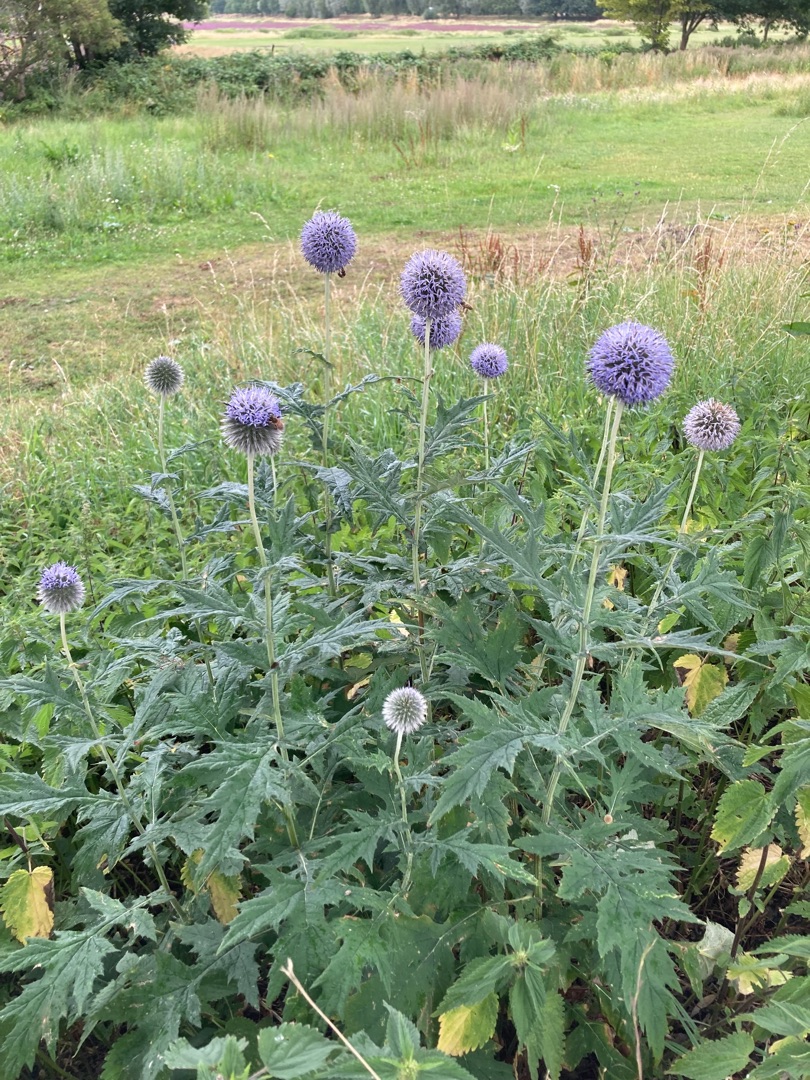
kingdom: Plantae
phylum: Tracheophyta
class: Magnoliopsida
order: Asterales
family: Asteraceae
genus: Echinops
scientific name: Echinops
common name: Tidselkugleslægten
